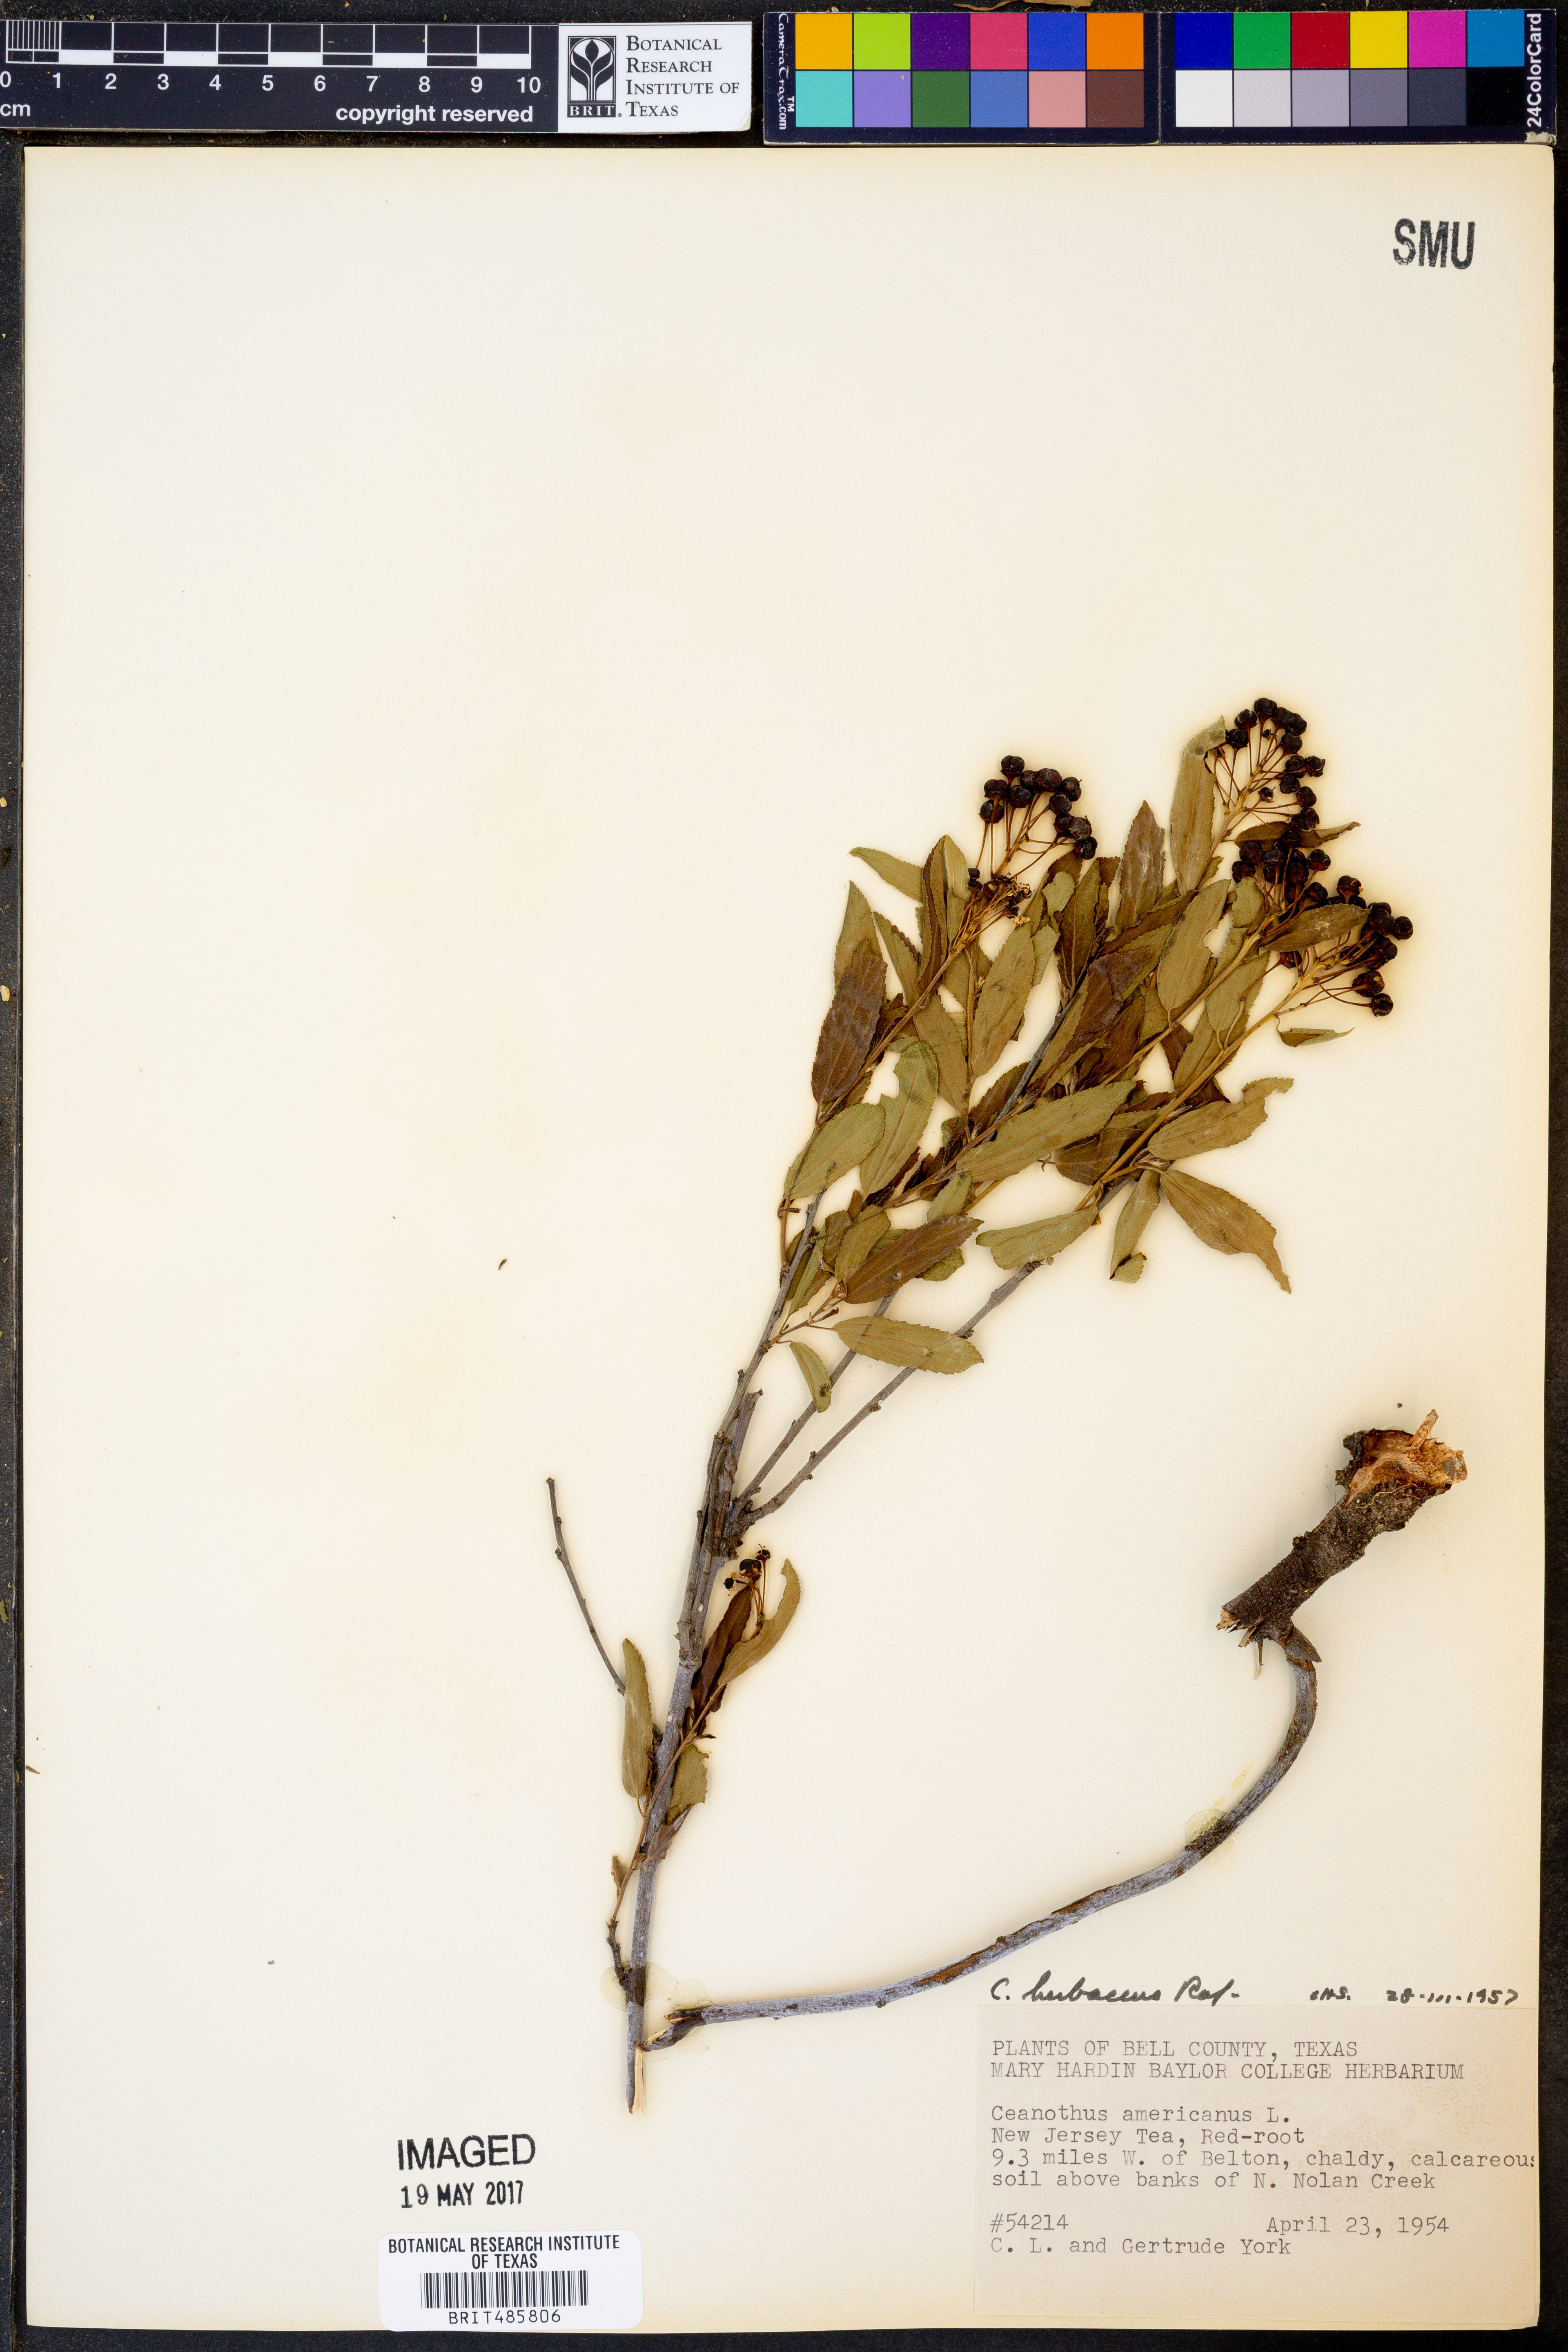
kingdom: Plantae
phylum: Tracheophyta
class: Magnoliopsida
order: Rosales
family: Rhamnaceae
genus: Ceanothus
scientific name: Ceanothus herbaceus
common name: Inland ceanothus
